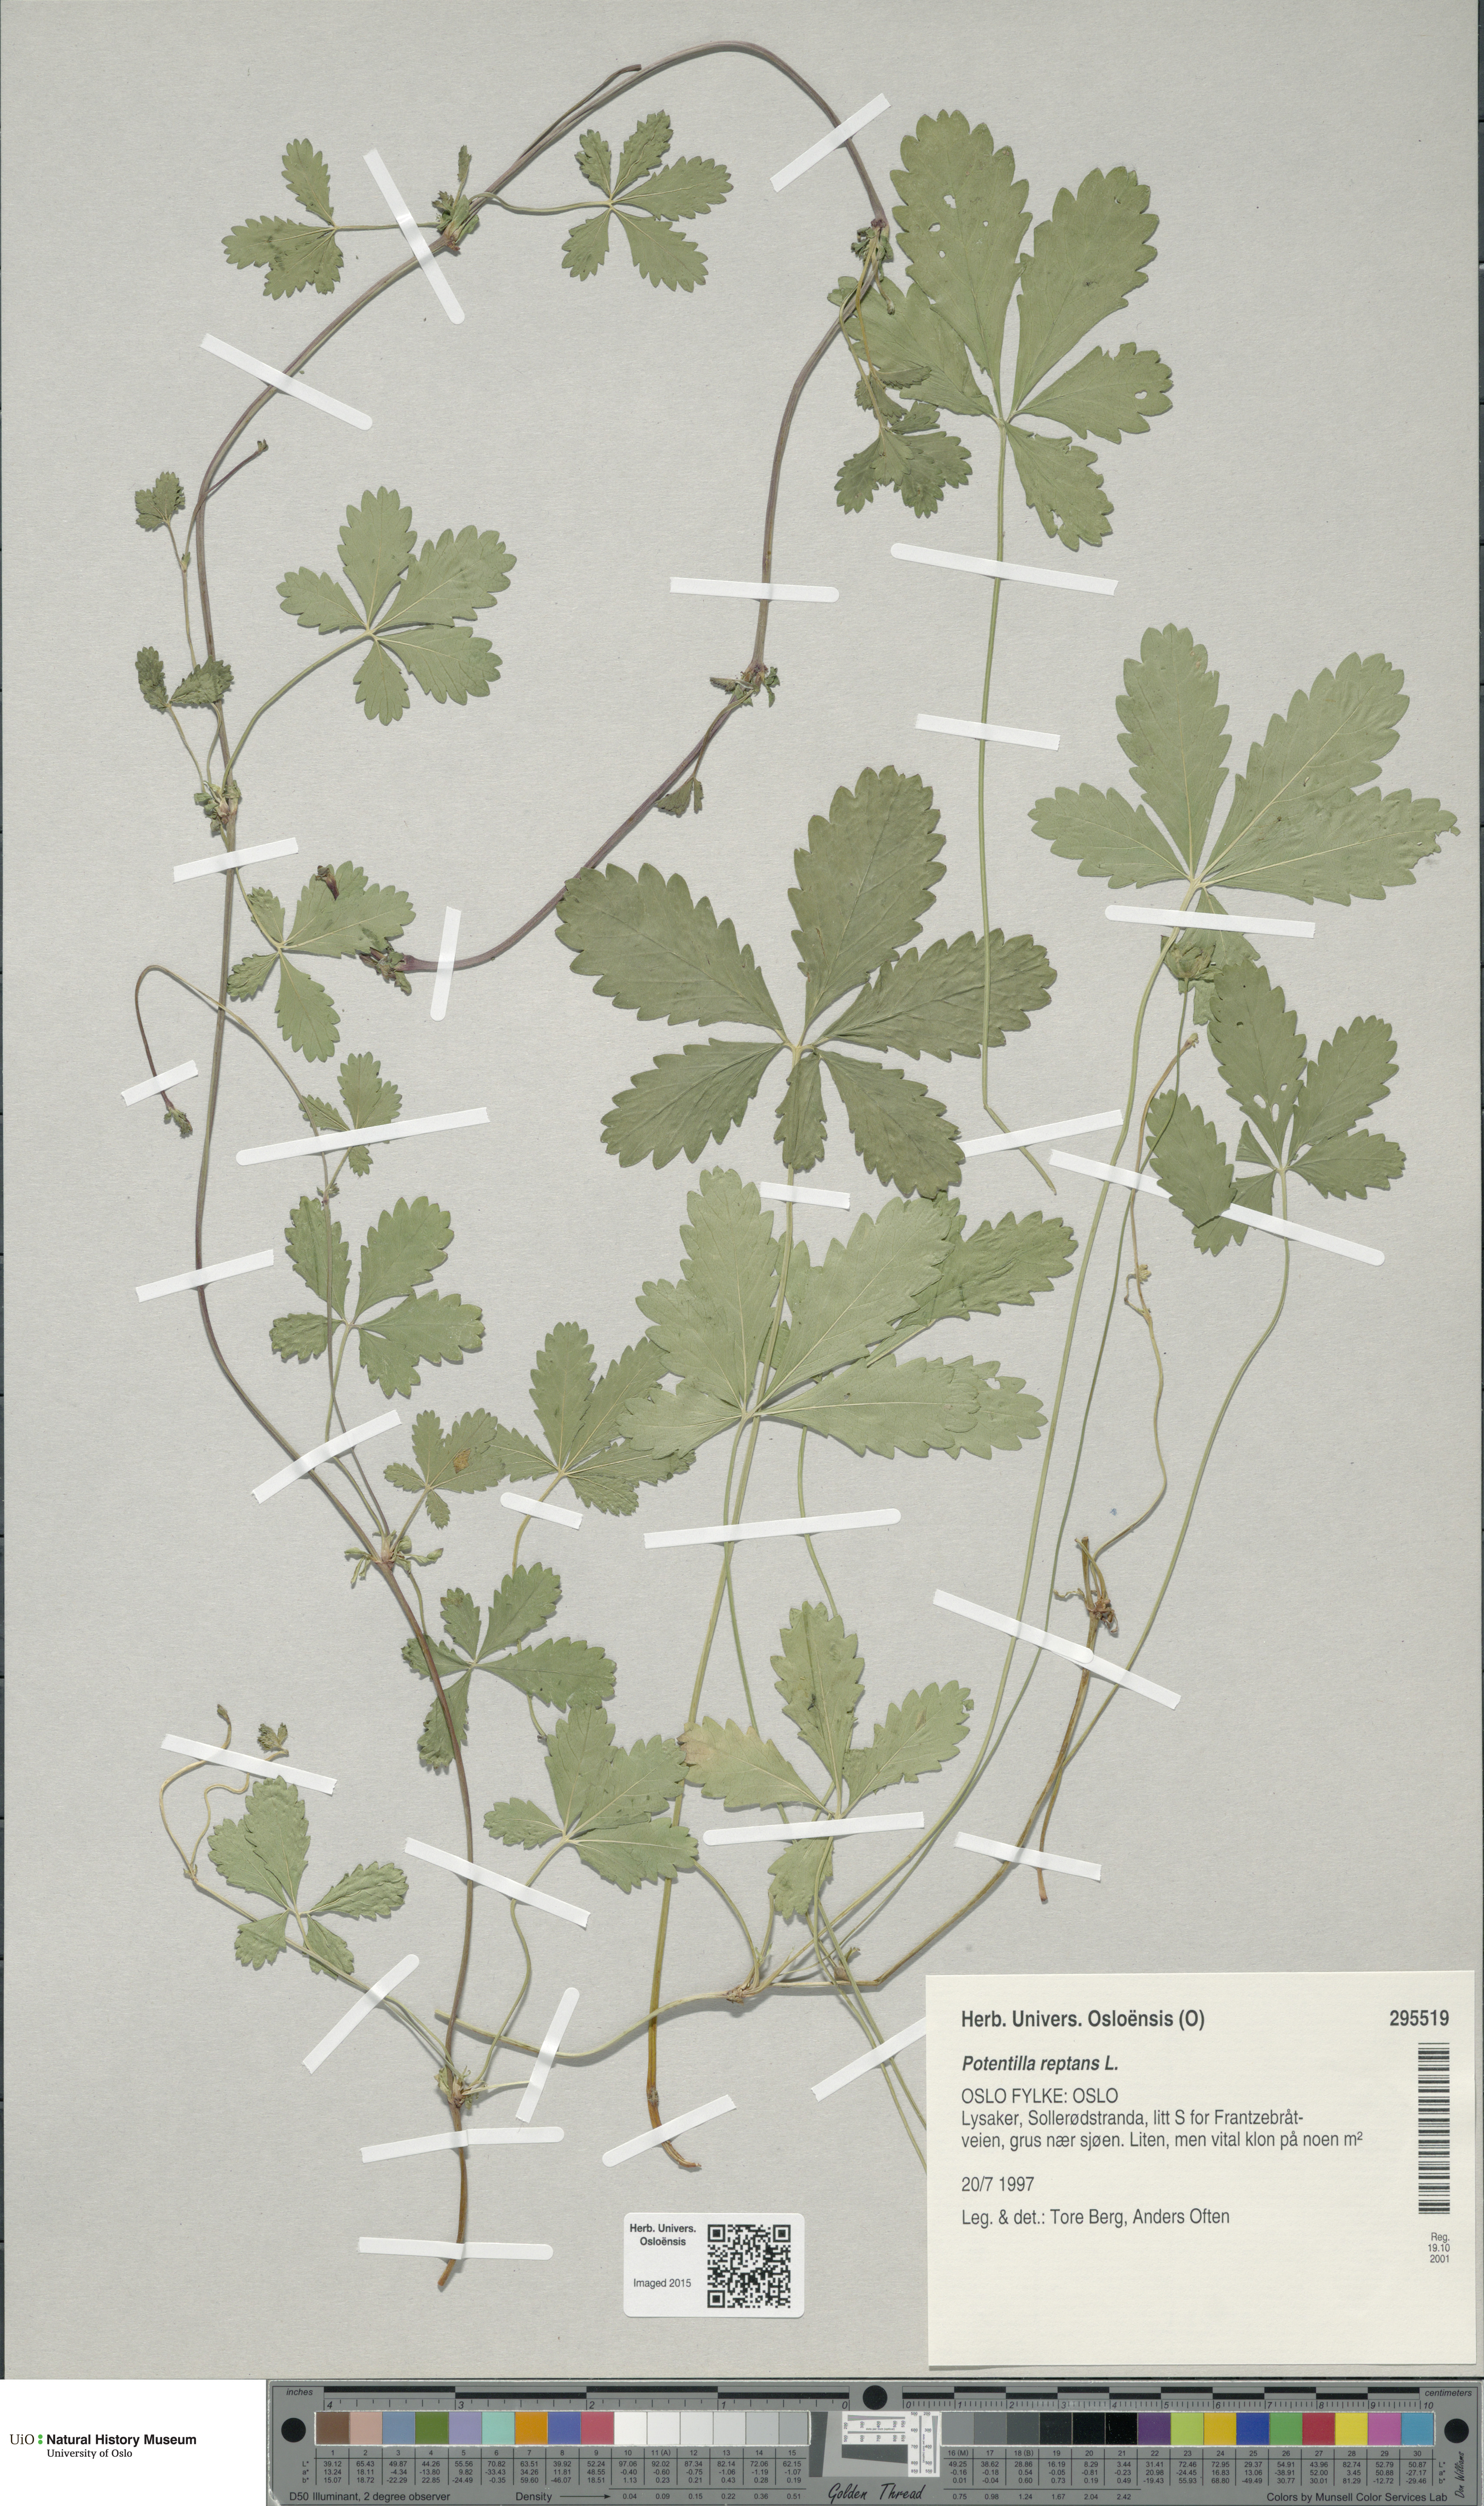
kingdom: Plantae
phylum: Tracheophyta
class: Magnoliopsida
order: Rosales
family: Rosaceae
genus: Potentilla
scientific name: Potentilla reptans
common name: Creeping cinquefoil
